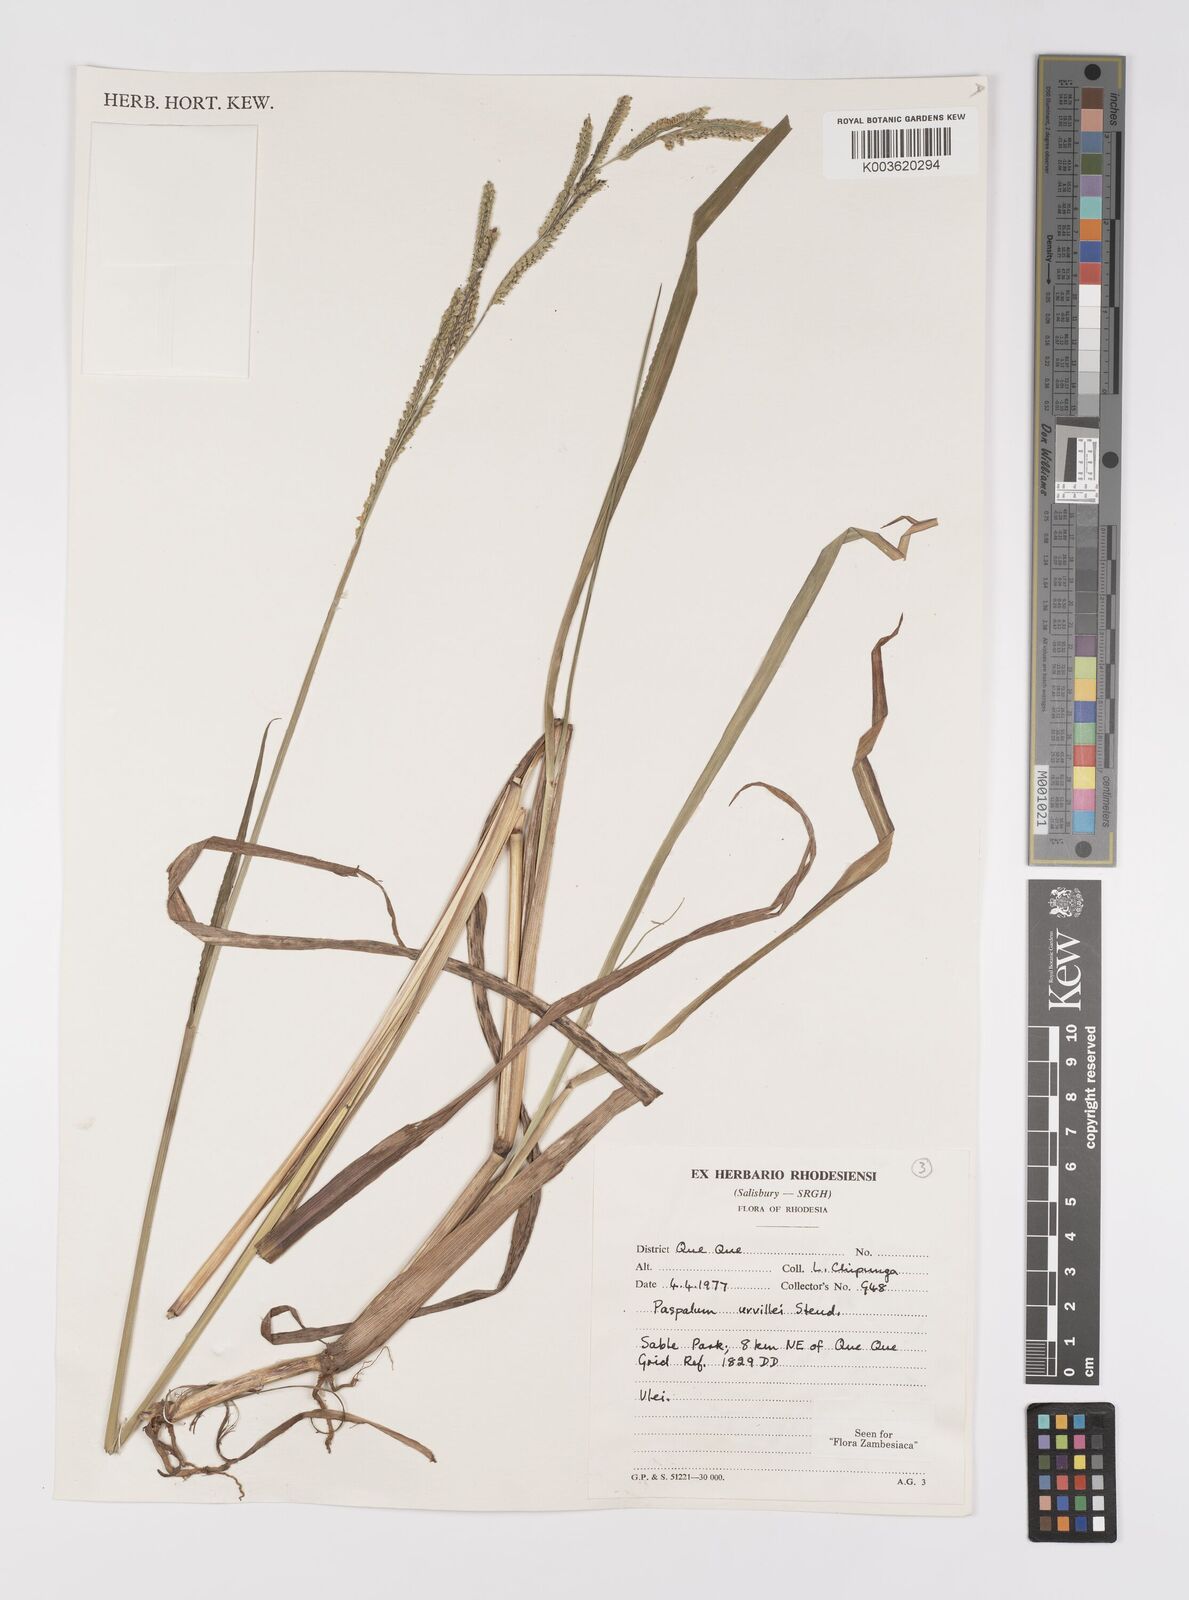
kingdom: Plantae
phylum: Tracheophyta
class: Liliopsida
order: Poales
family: Poaceae
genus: Paspalum
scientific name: Paspalum urvillei
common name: Vasey's grass
